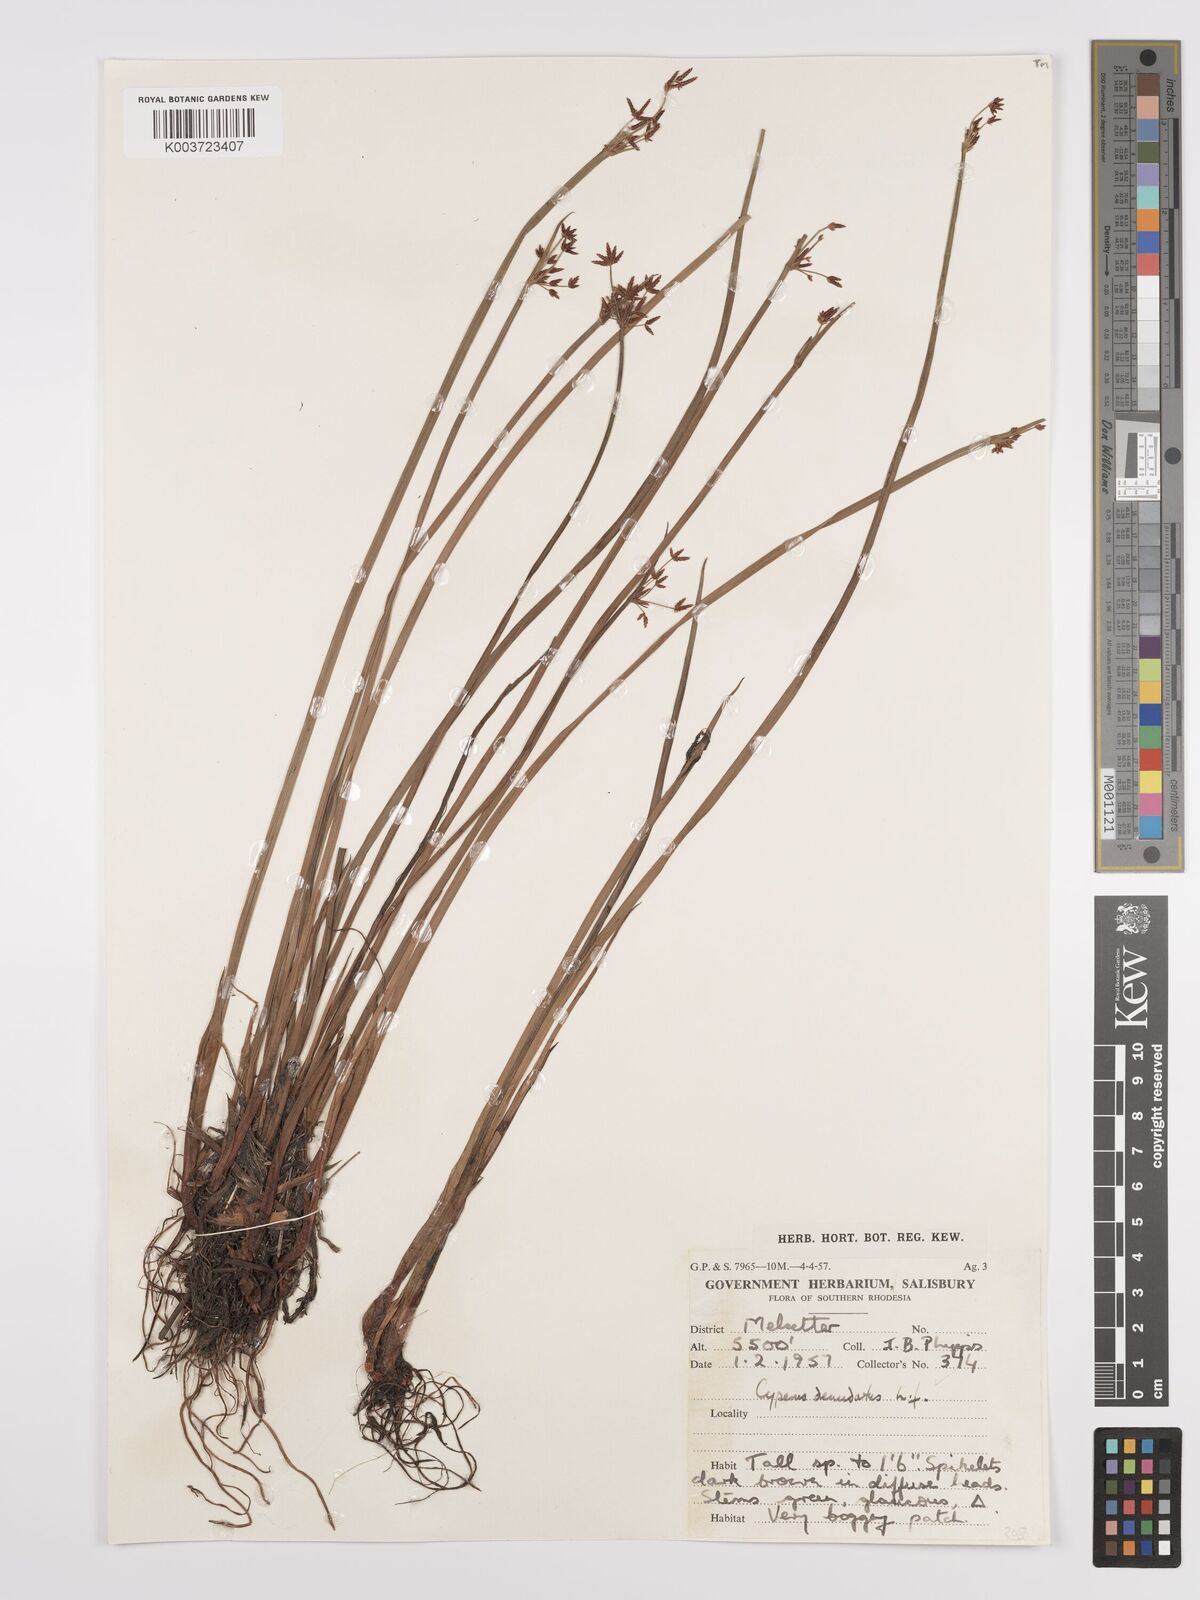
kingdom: Plantae
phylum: Tracheophyta
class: Liliopsida
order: Poales
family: Cyperaceae
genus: Cyperus
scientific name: Cyperus denudatus
